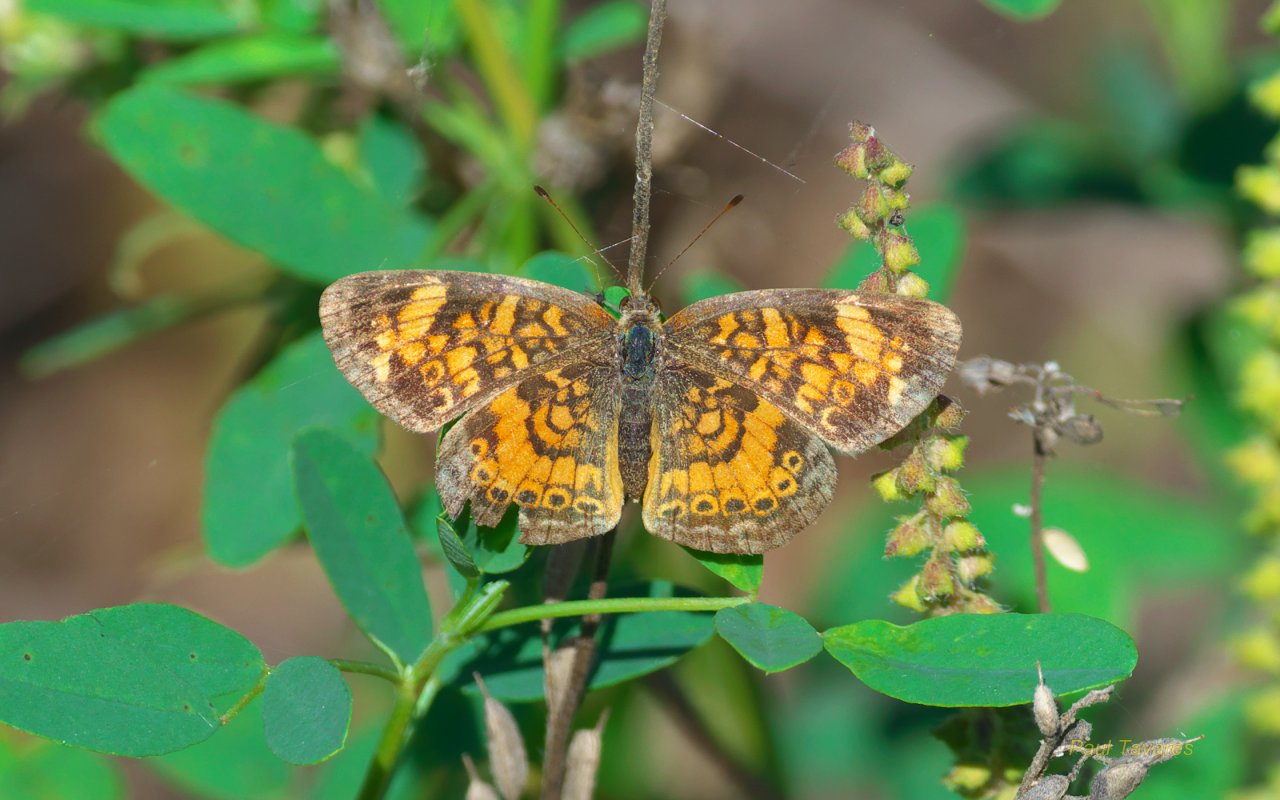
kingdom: Animalia
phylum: Arthropoda
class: Insecta
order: Lepidoptera
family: Nymphalidae
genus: Phyciodes
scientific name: Phyciodes tharos
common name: Pearl Crescent
